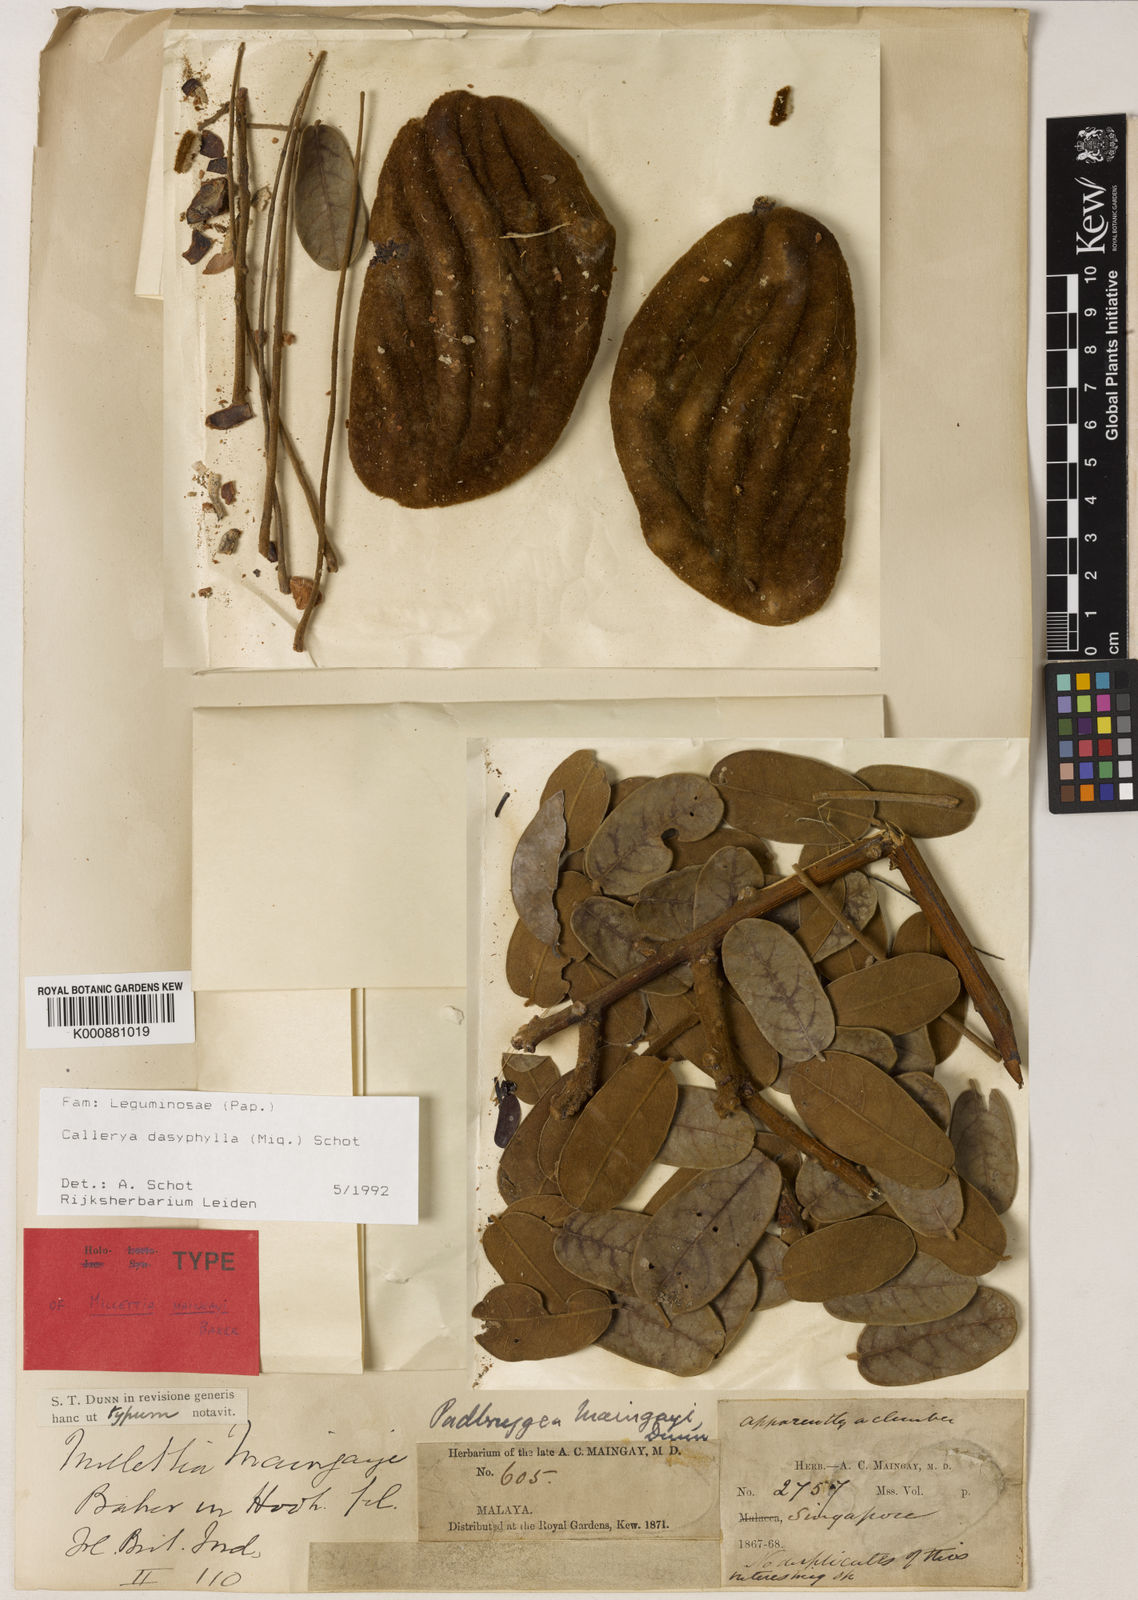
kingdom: Plantae
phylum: Tracheophyta
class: Magnoliopsida
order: Fabales
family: Fabaceae
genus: Padbruggea
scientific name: Padbruggea dasyphylla
